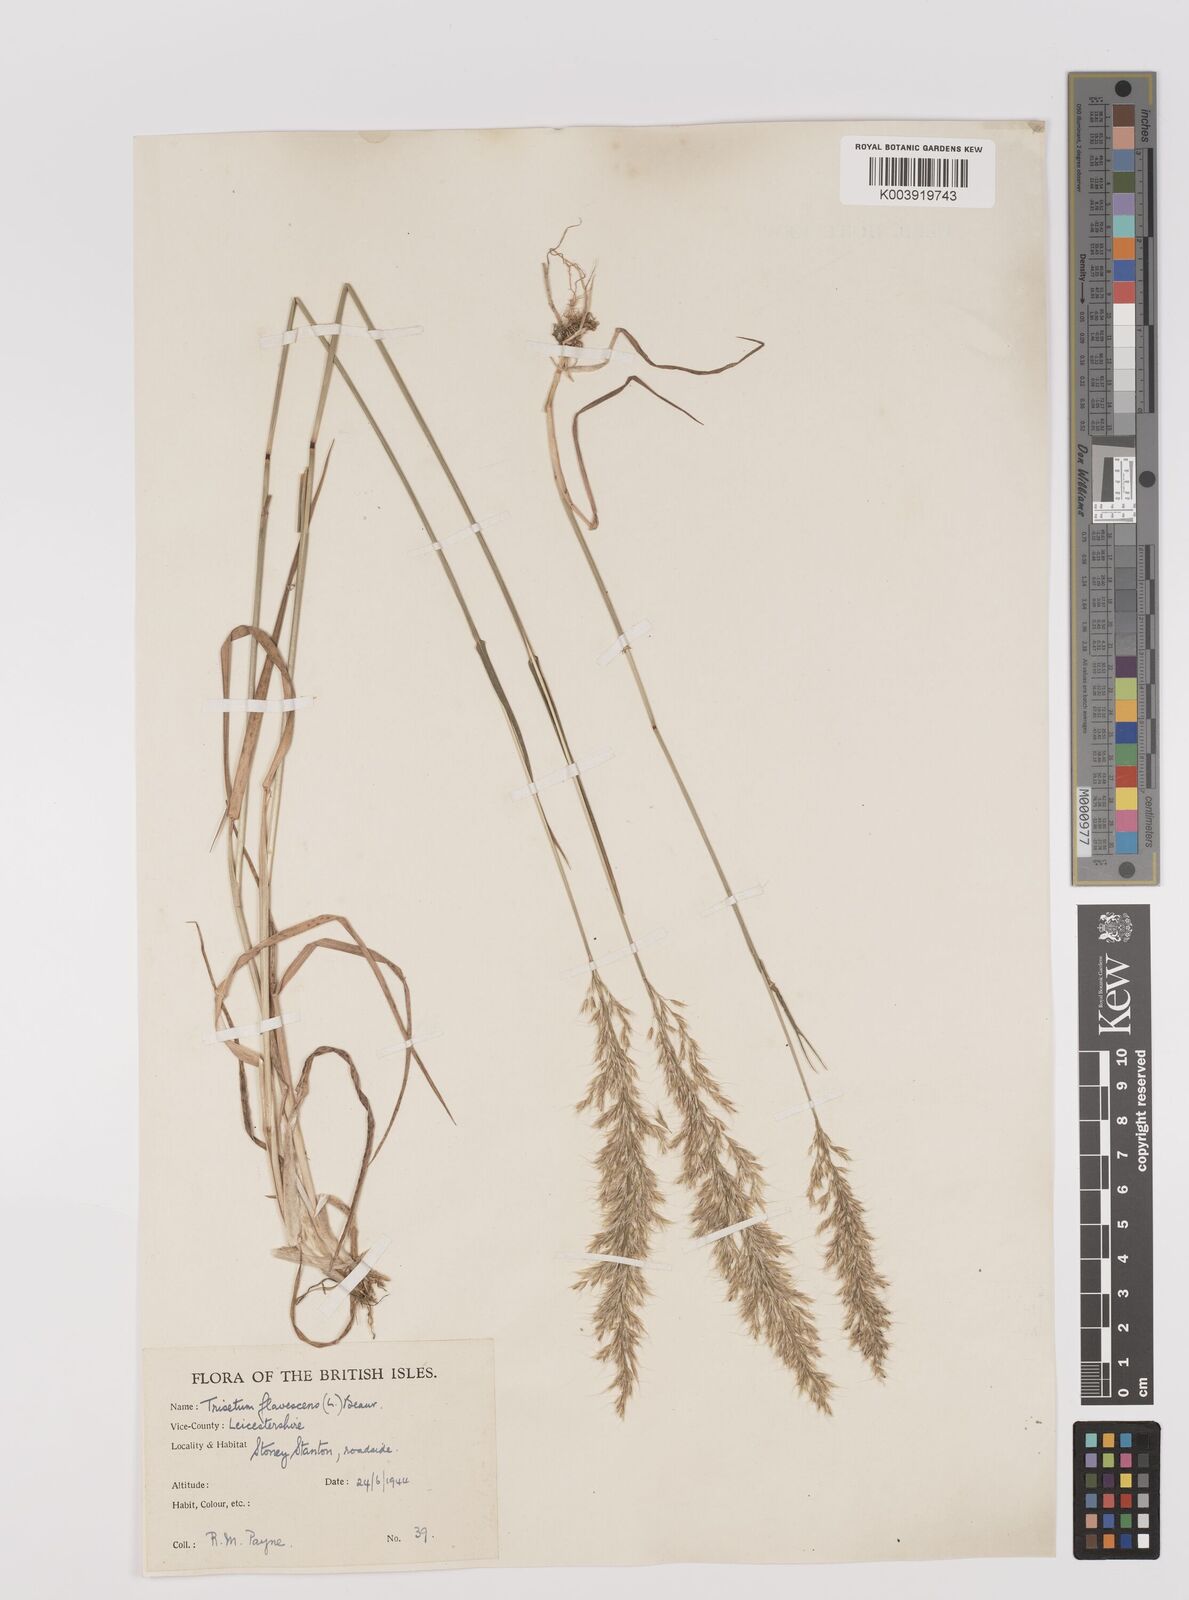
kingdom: Plantae
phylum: Tracheophyta
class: Liliopsida
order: Poales
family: Poaceae
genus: Trisetum
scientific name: Trisetum flavescens
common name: Yellow oat-grass
